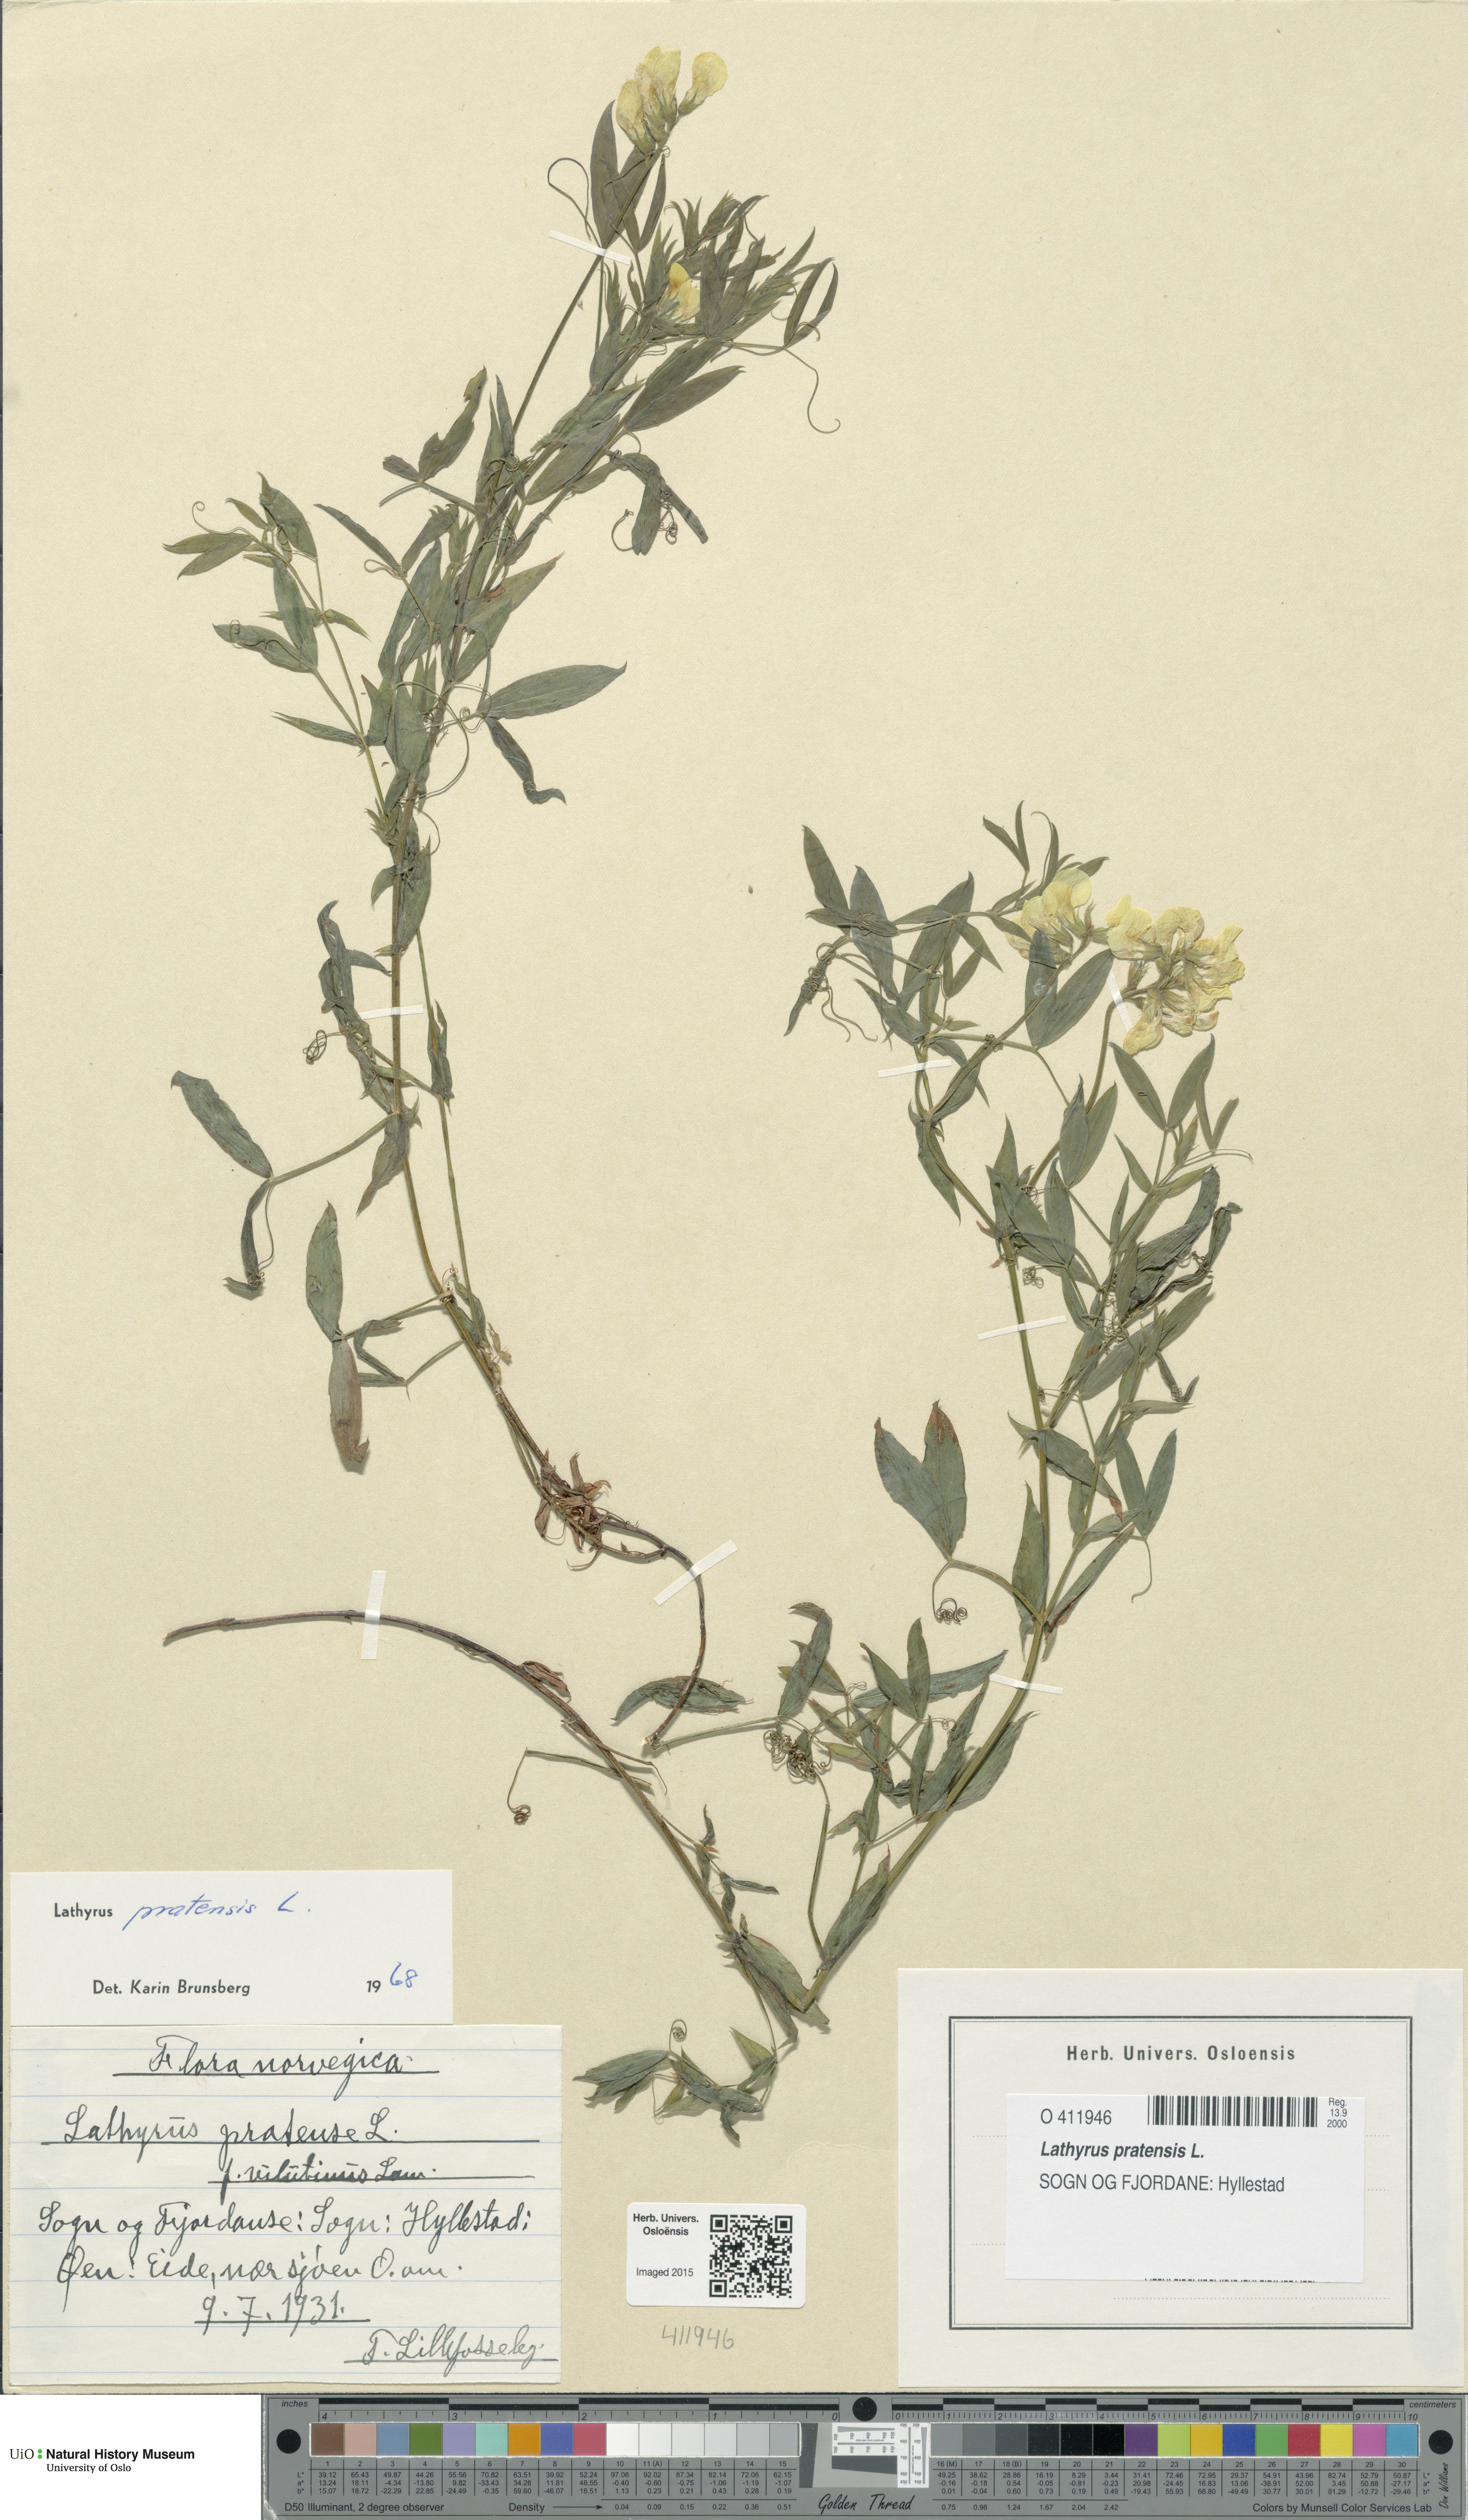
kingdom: Plantae
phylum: Tracheophyta
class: Magnoliopsida
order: Fabales
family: Fabaceae
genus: Lathyrus
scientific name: Lathyrus pratensis
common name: Meadow vetchling
